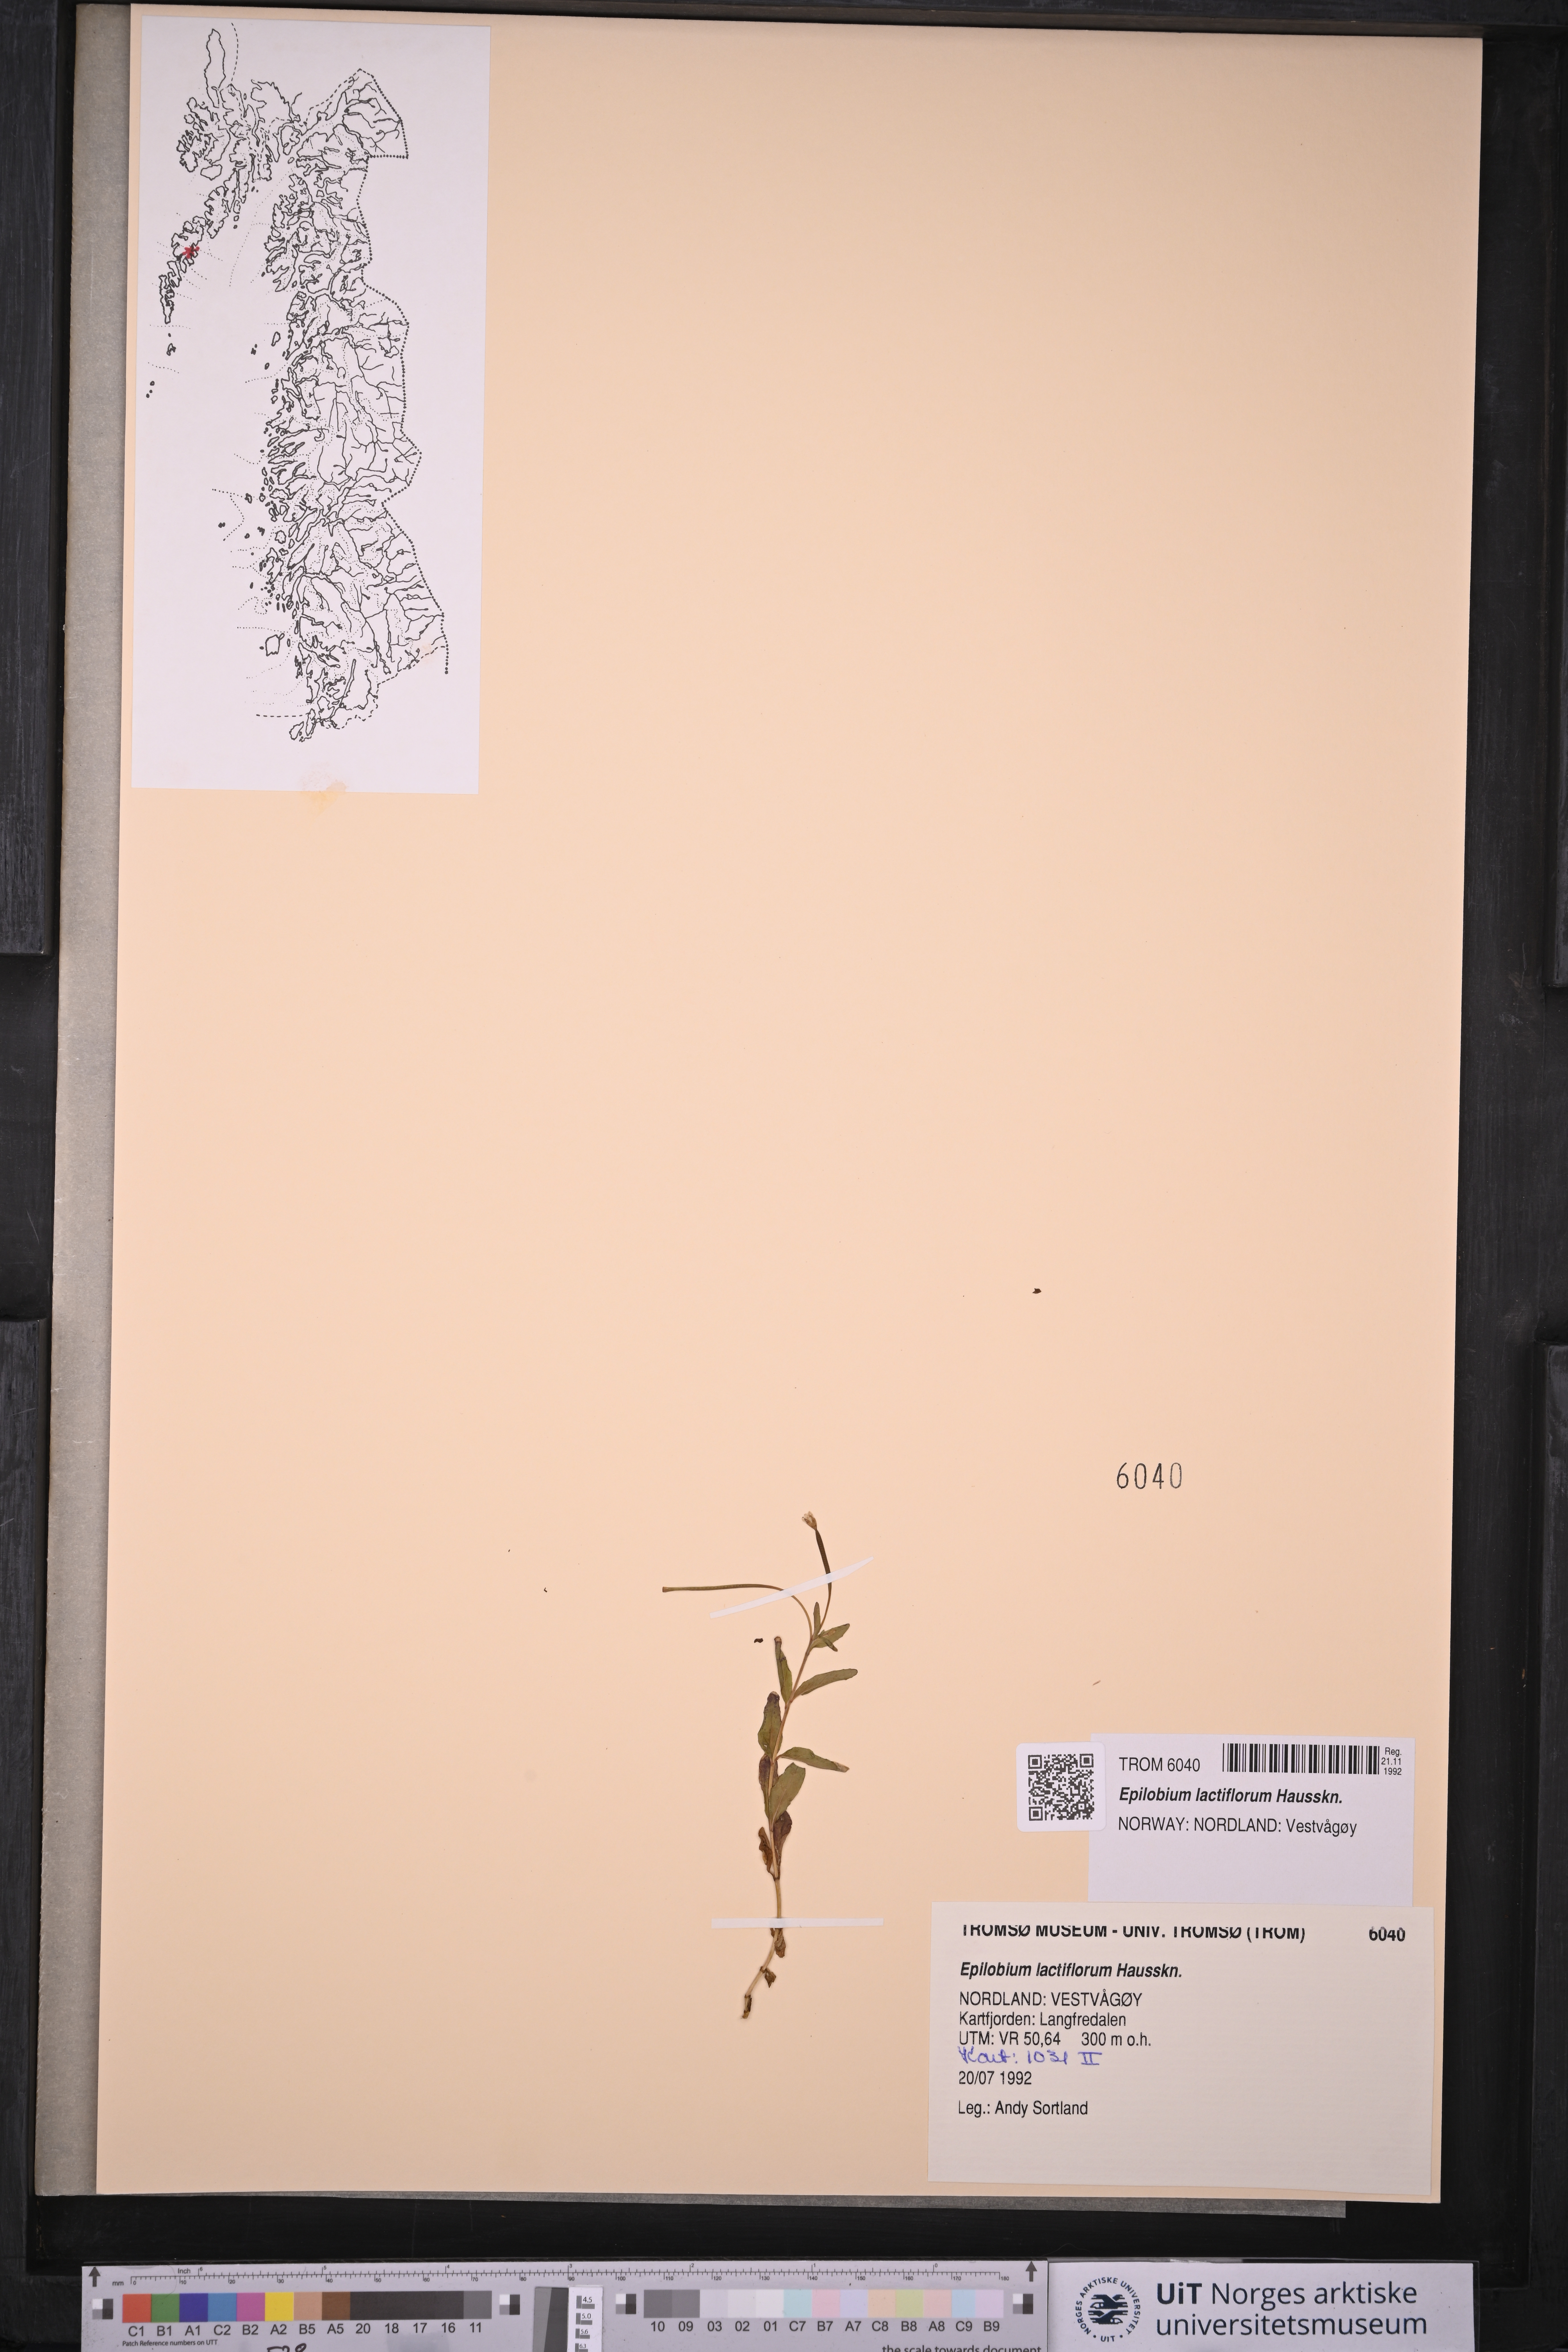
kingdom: Plantae
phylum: Tracheophyta
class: Magnoliopsida
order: Myrtales
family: Onagraceae
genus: Epilobium
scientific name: Epilobium lactiflorum
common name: Milkflower willowherb
